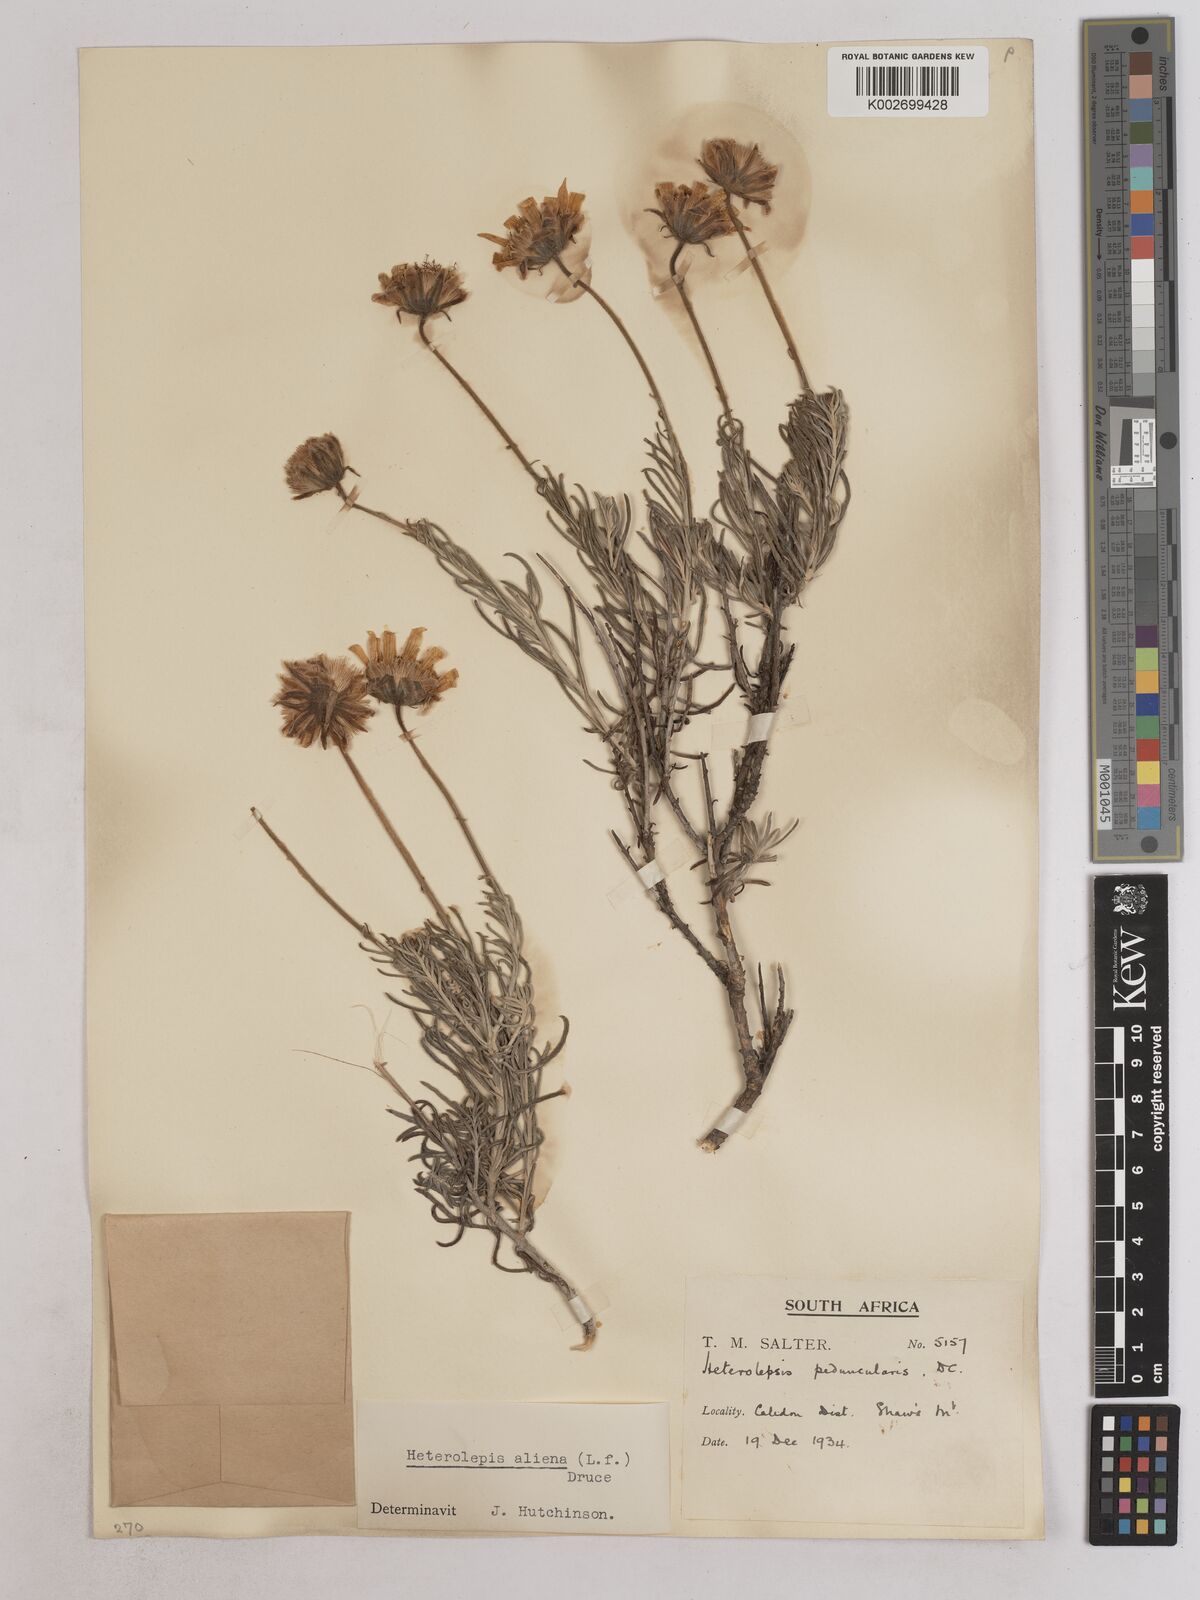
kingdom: Plantae
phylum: Tracheophyta
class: Magnoliopsida
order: Asterales
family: Asteraceae
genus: Heterolepis
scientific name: Heterolepis aliena
